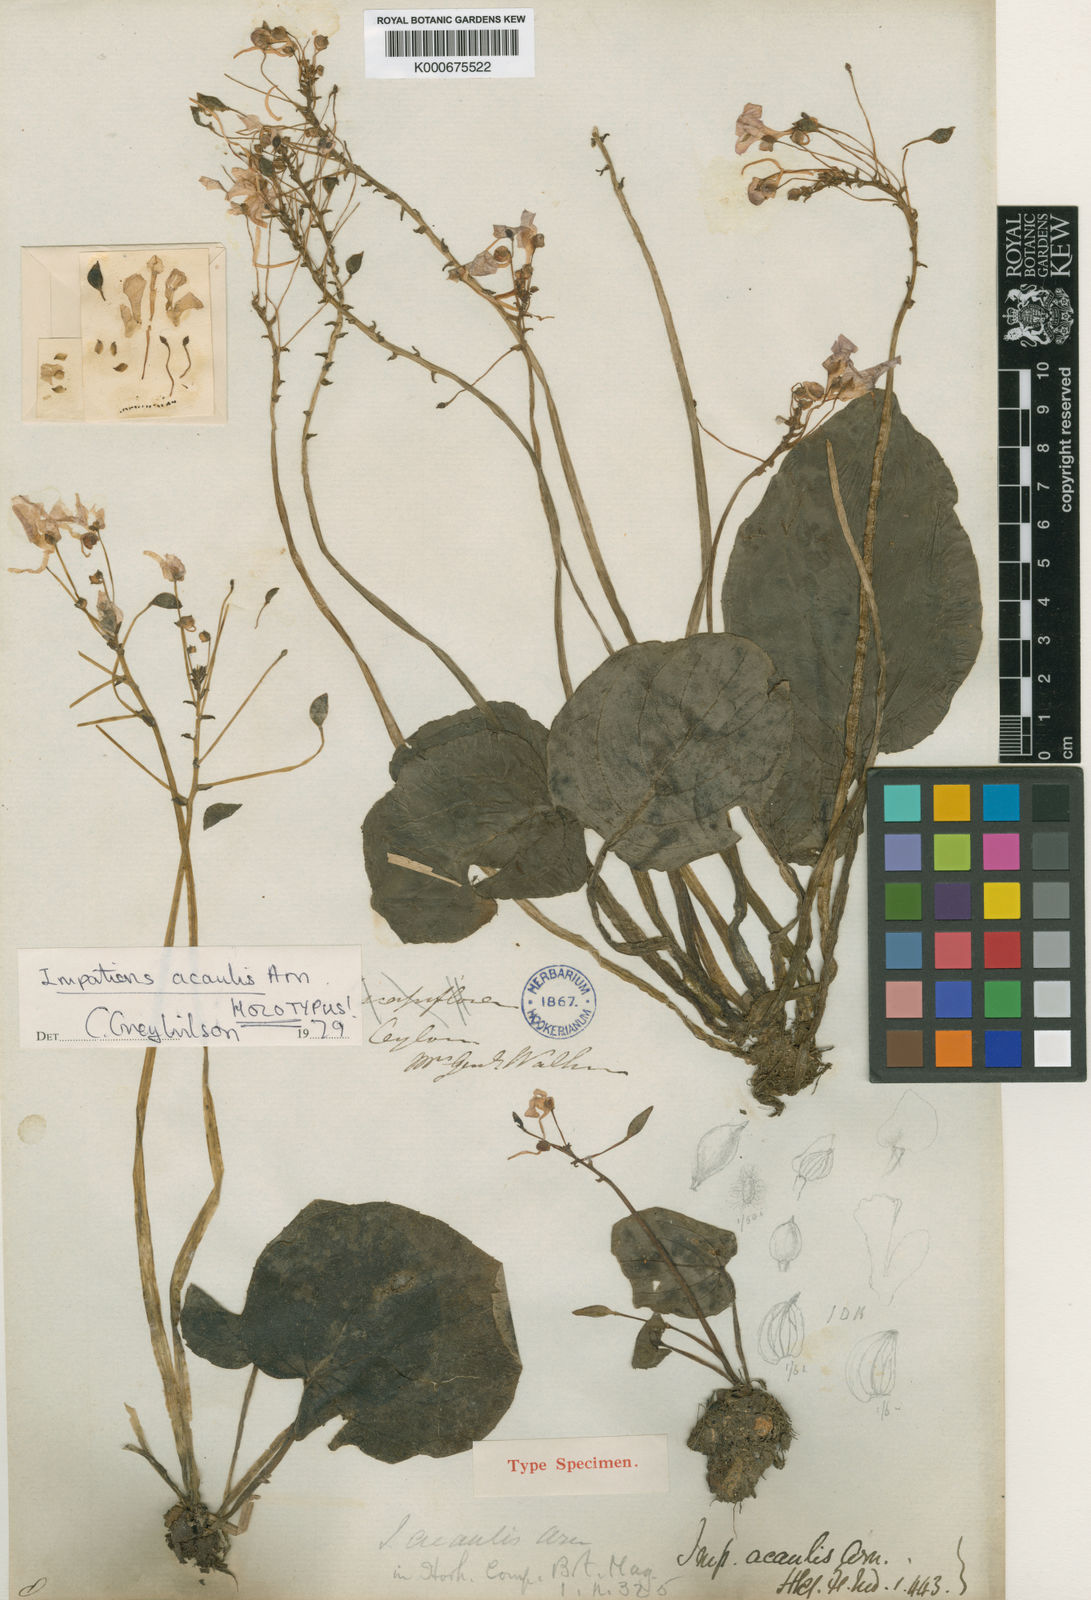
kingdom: Plantae
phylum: Tracheophyta
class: Magnoliopsida
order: Ericales
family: Balsaminaceae
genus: Impatiens
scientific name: Impatiens acaulis
